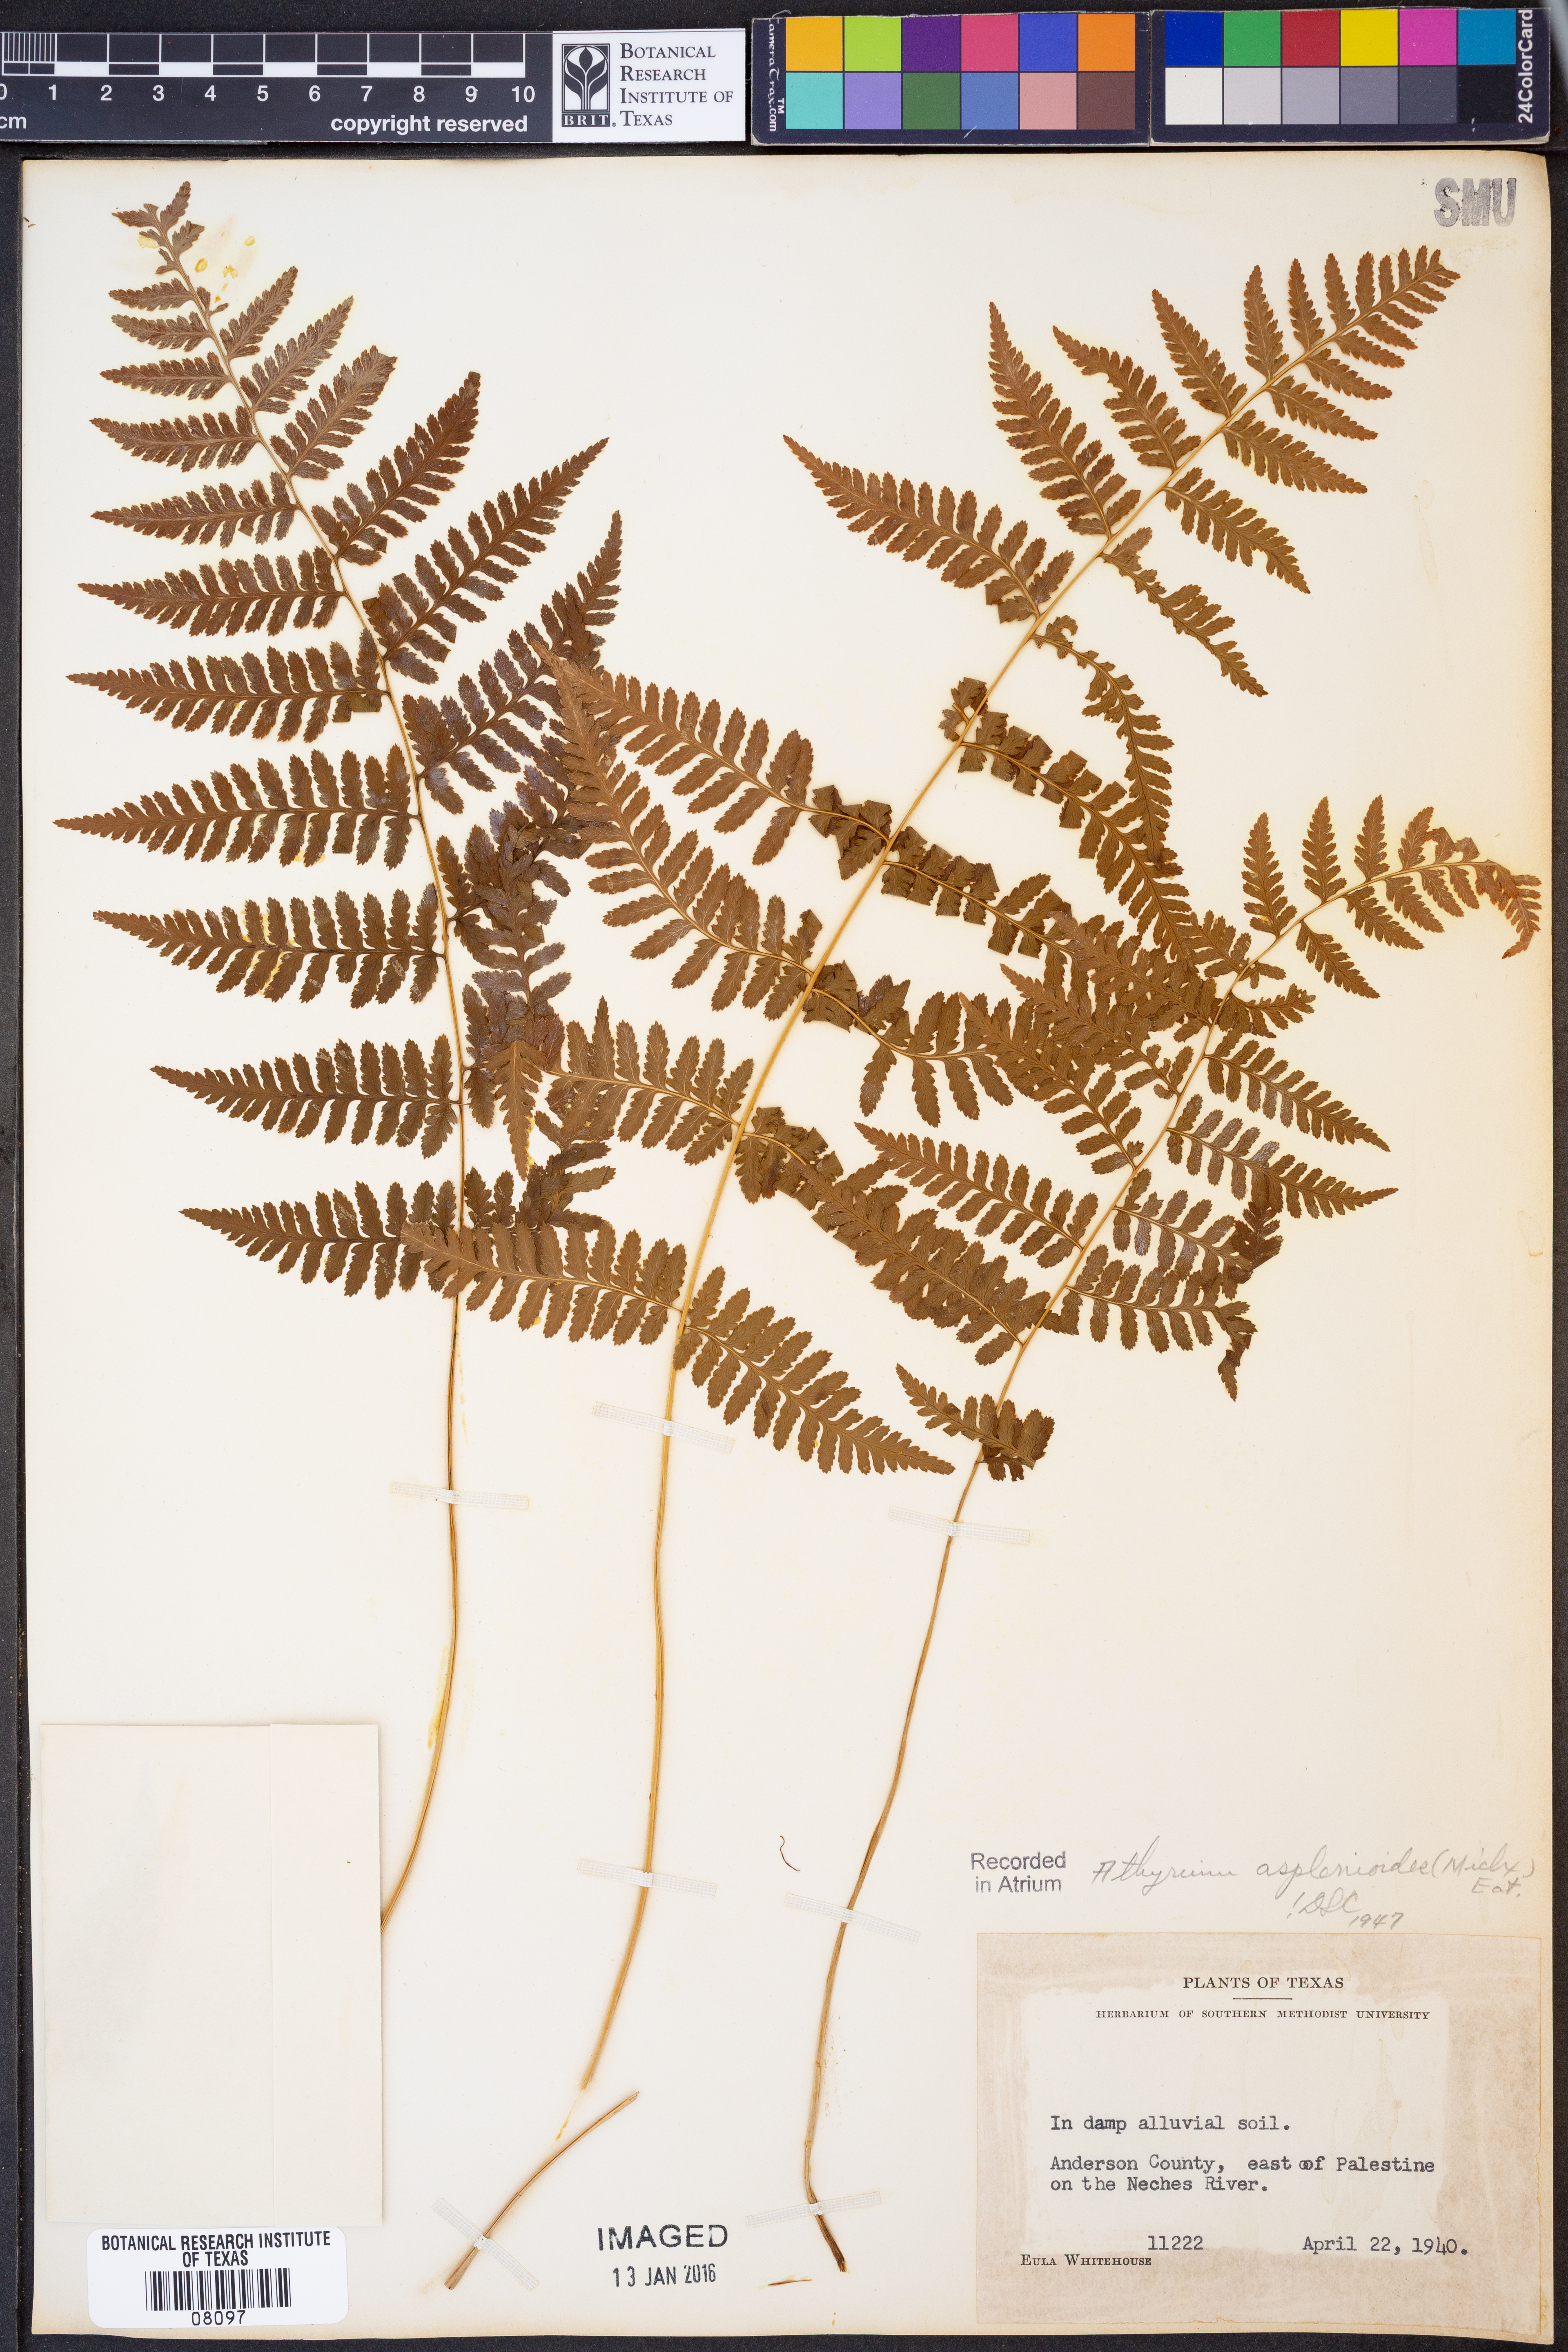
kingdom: Plantae
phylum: Tracheophyta
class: Polypodiopsida
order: Polypodiales
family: Athyriaceae
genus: Athyrium
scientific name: Athyrium asplenioides
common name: Southern lady fern
